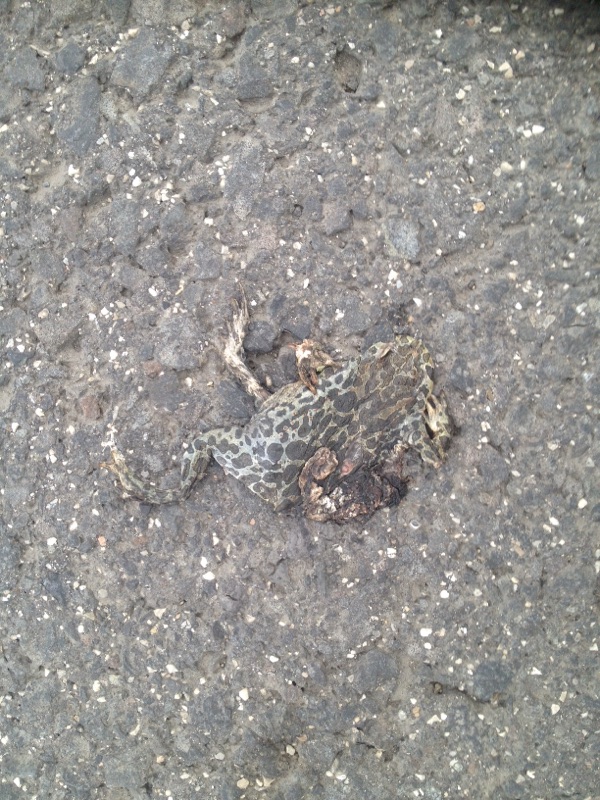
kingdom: Animalia
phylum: Chordata
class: Amphibia
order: Anura
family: Bufonidae
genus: Bufotes
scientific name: Bufotes viridis
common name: European green toad
